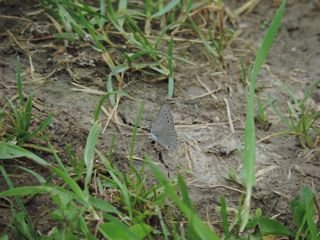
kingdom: Animalia
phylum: Arthropoda
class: Insecta
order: Lepidoptera
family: Lycaenidae
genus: Glaucopsyche
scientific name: Glaucopsyche lygdamus
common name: Silvery Blue
